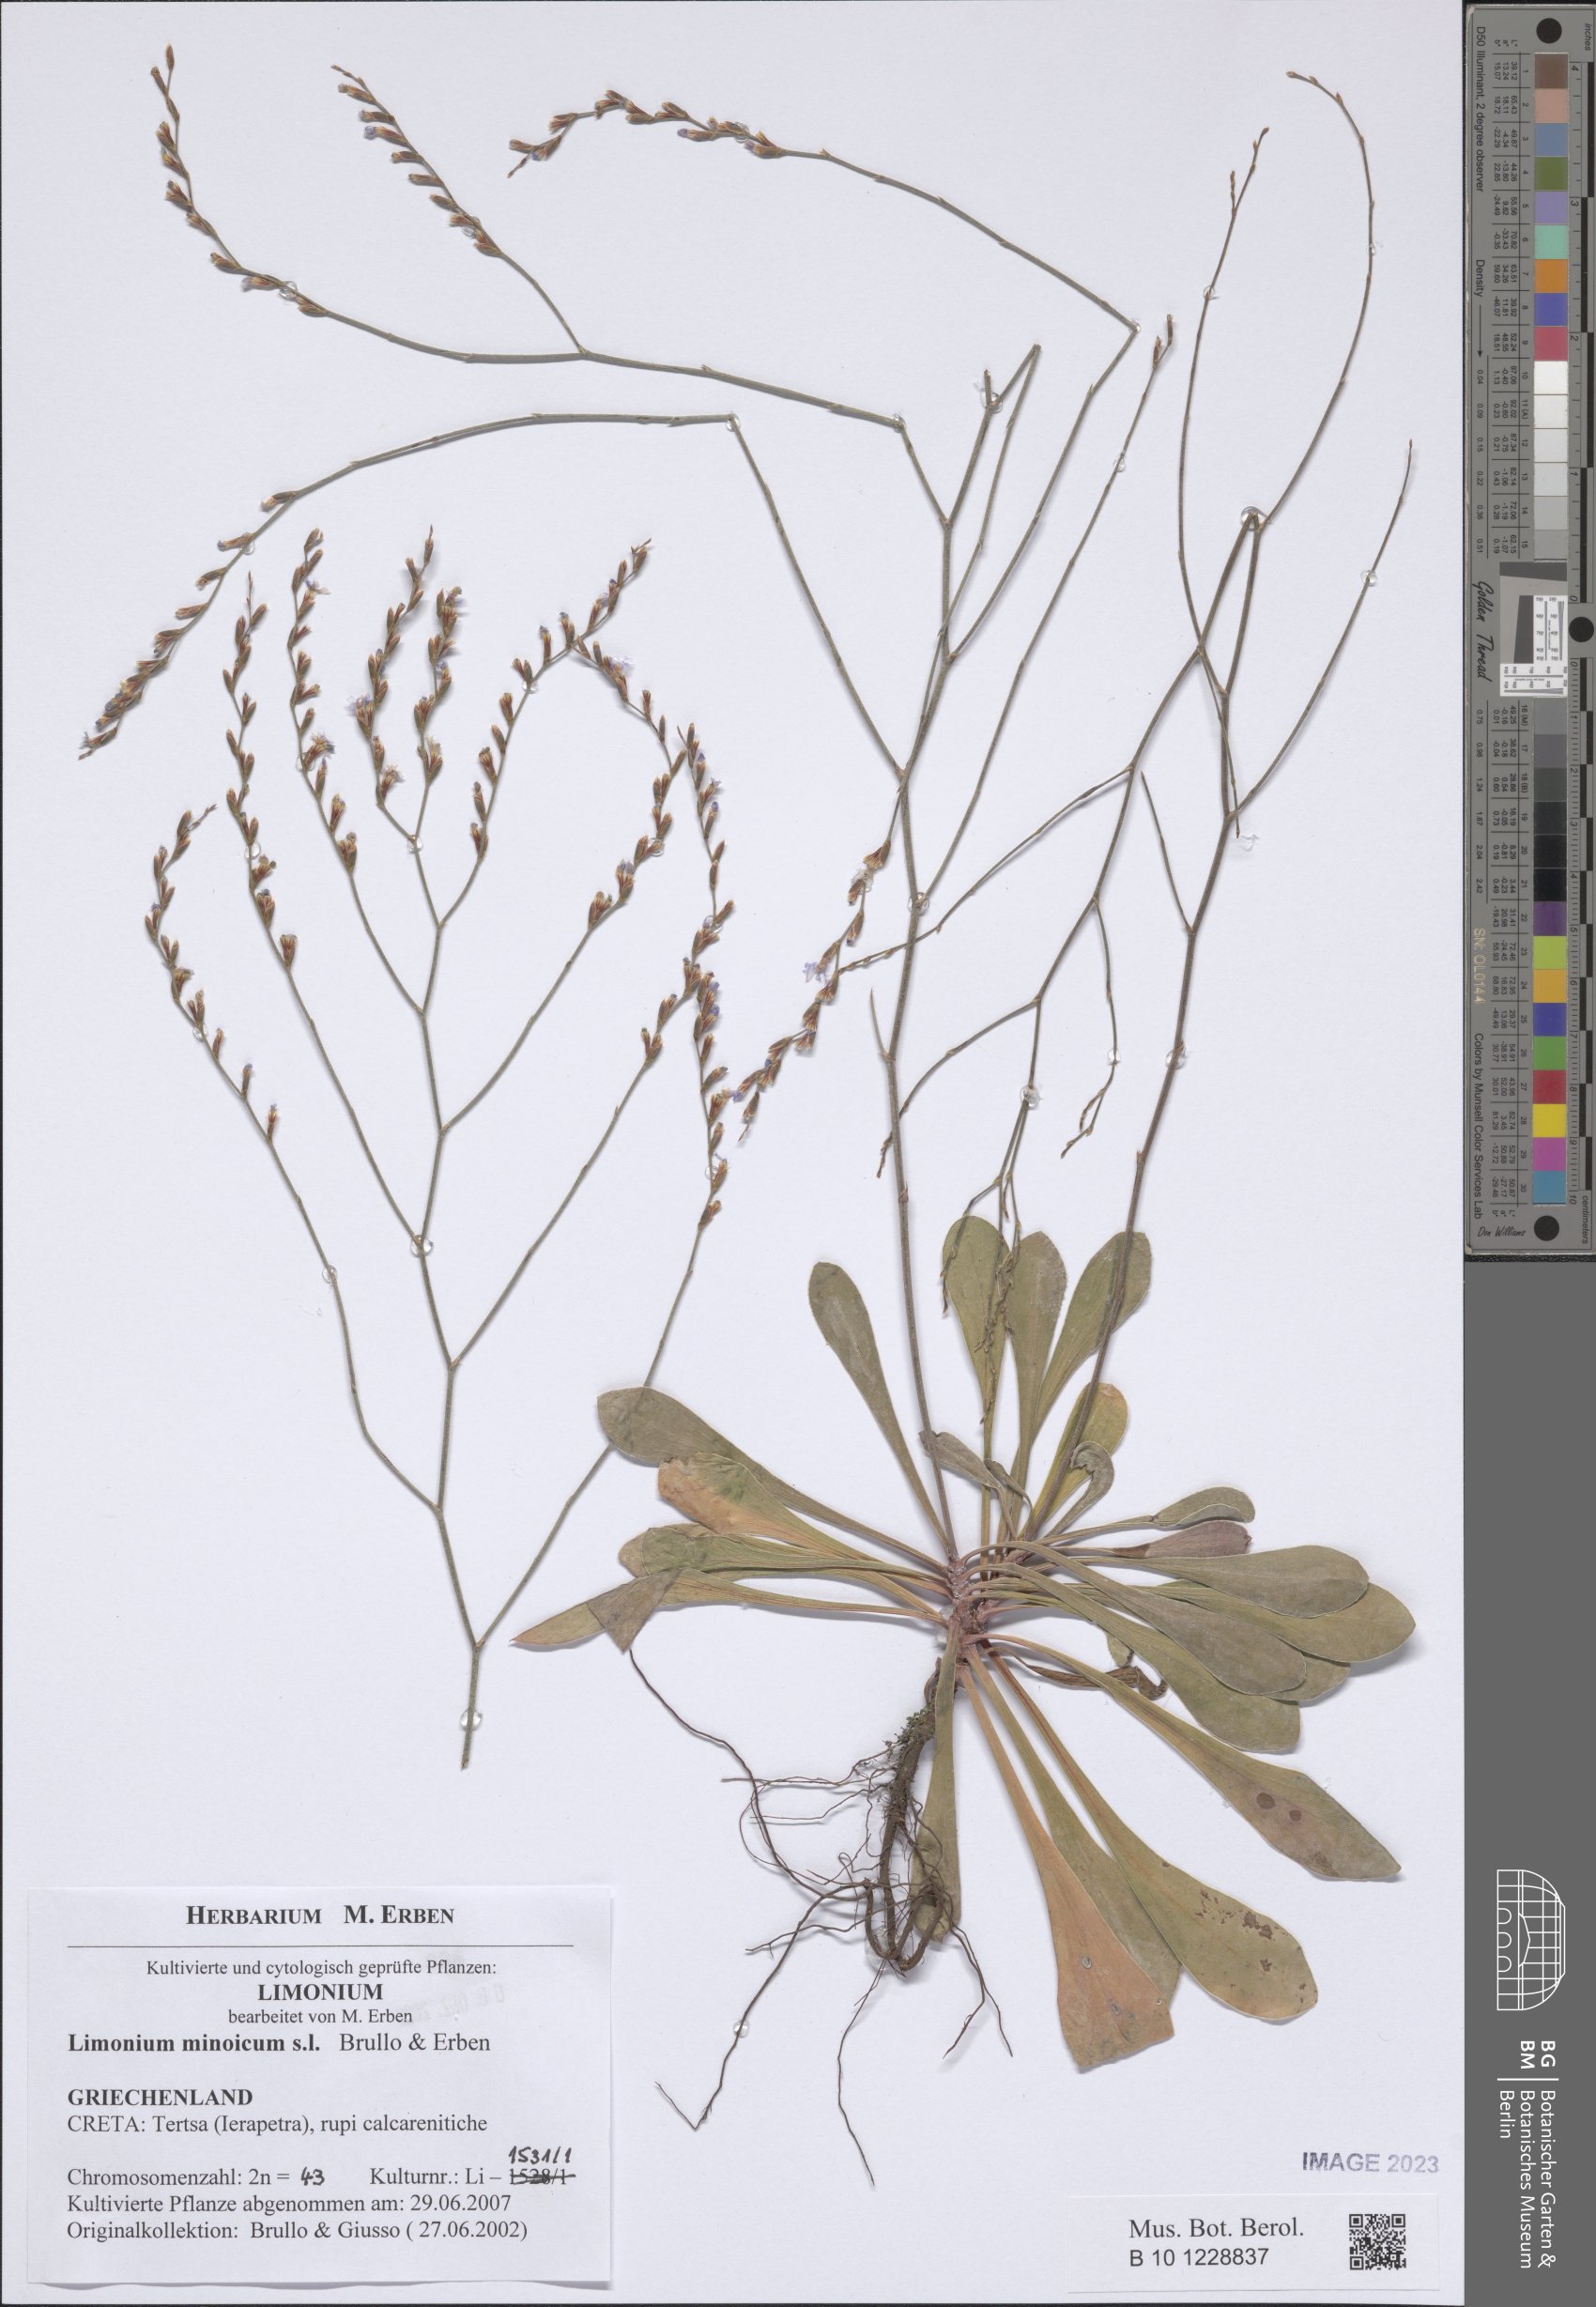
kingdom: Plantae
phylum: Tracheophyta
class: Magnoliopsida
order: Caryophyllales
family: Plumbaginaceae
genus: Limonium
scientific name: Limonium minoicum
